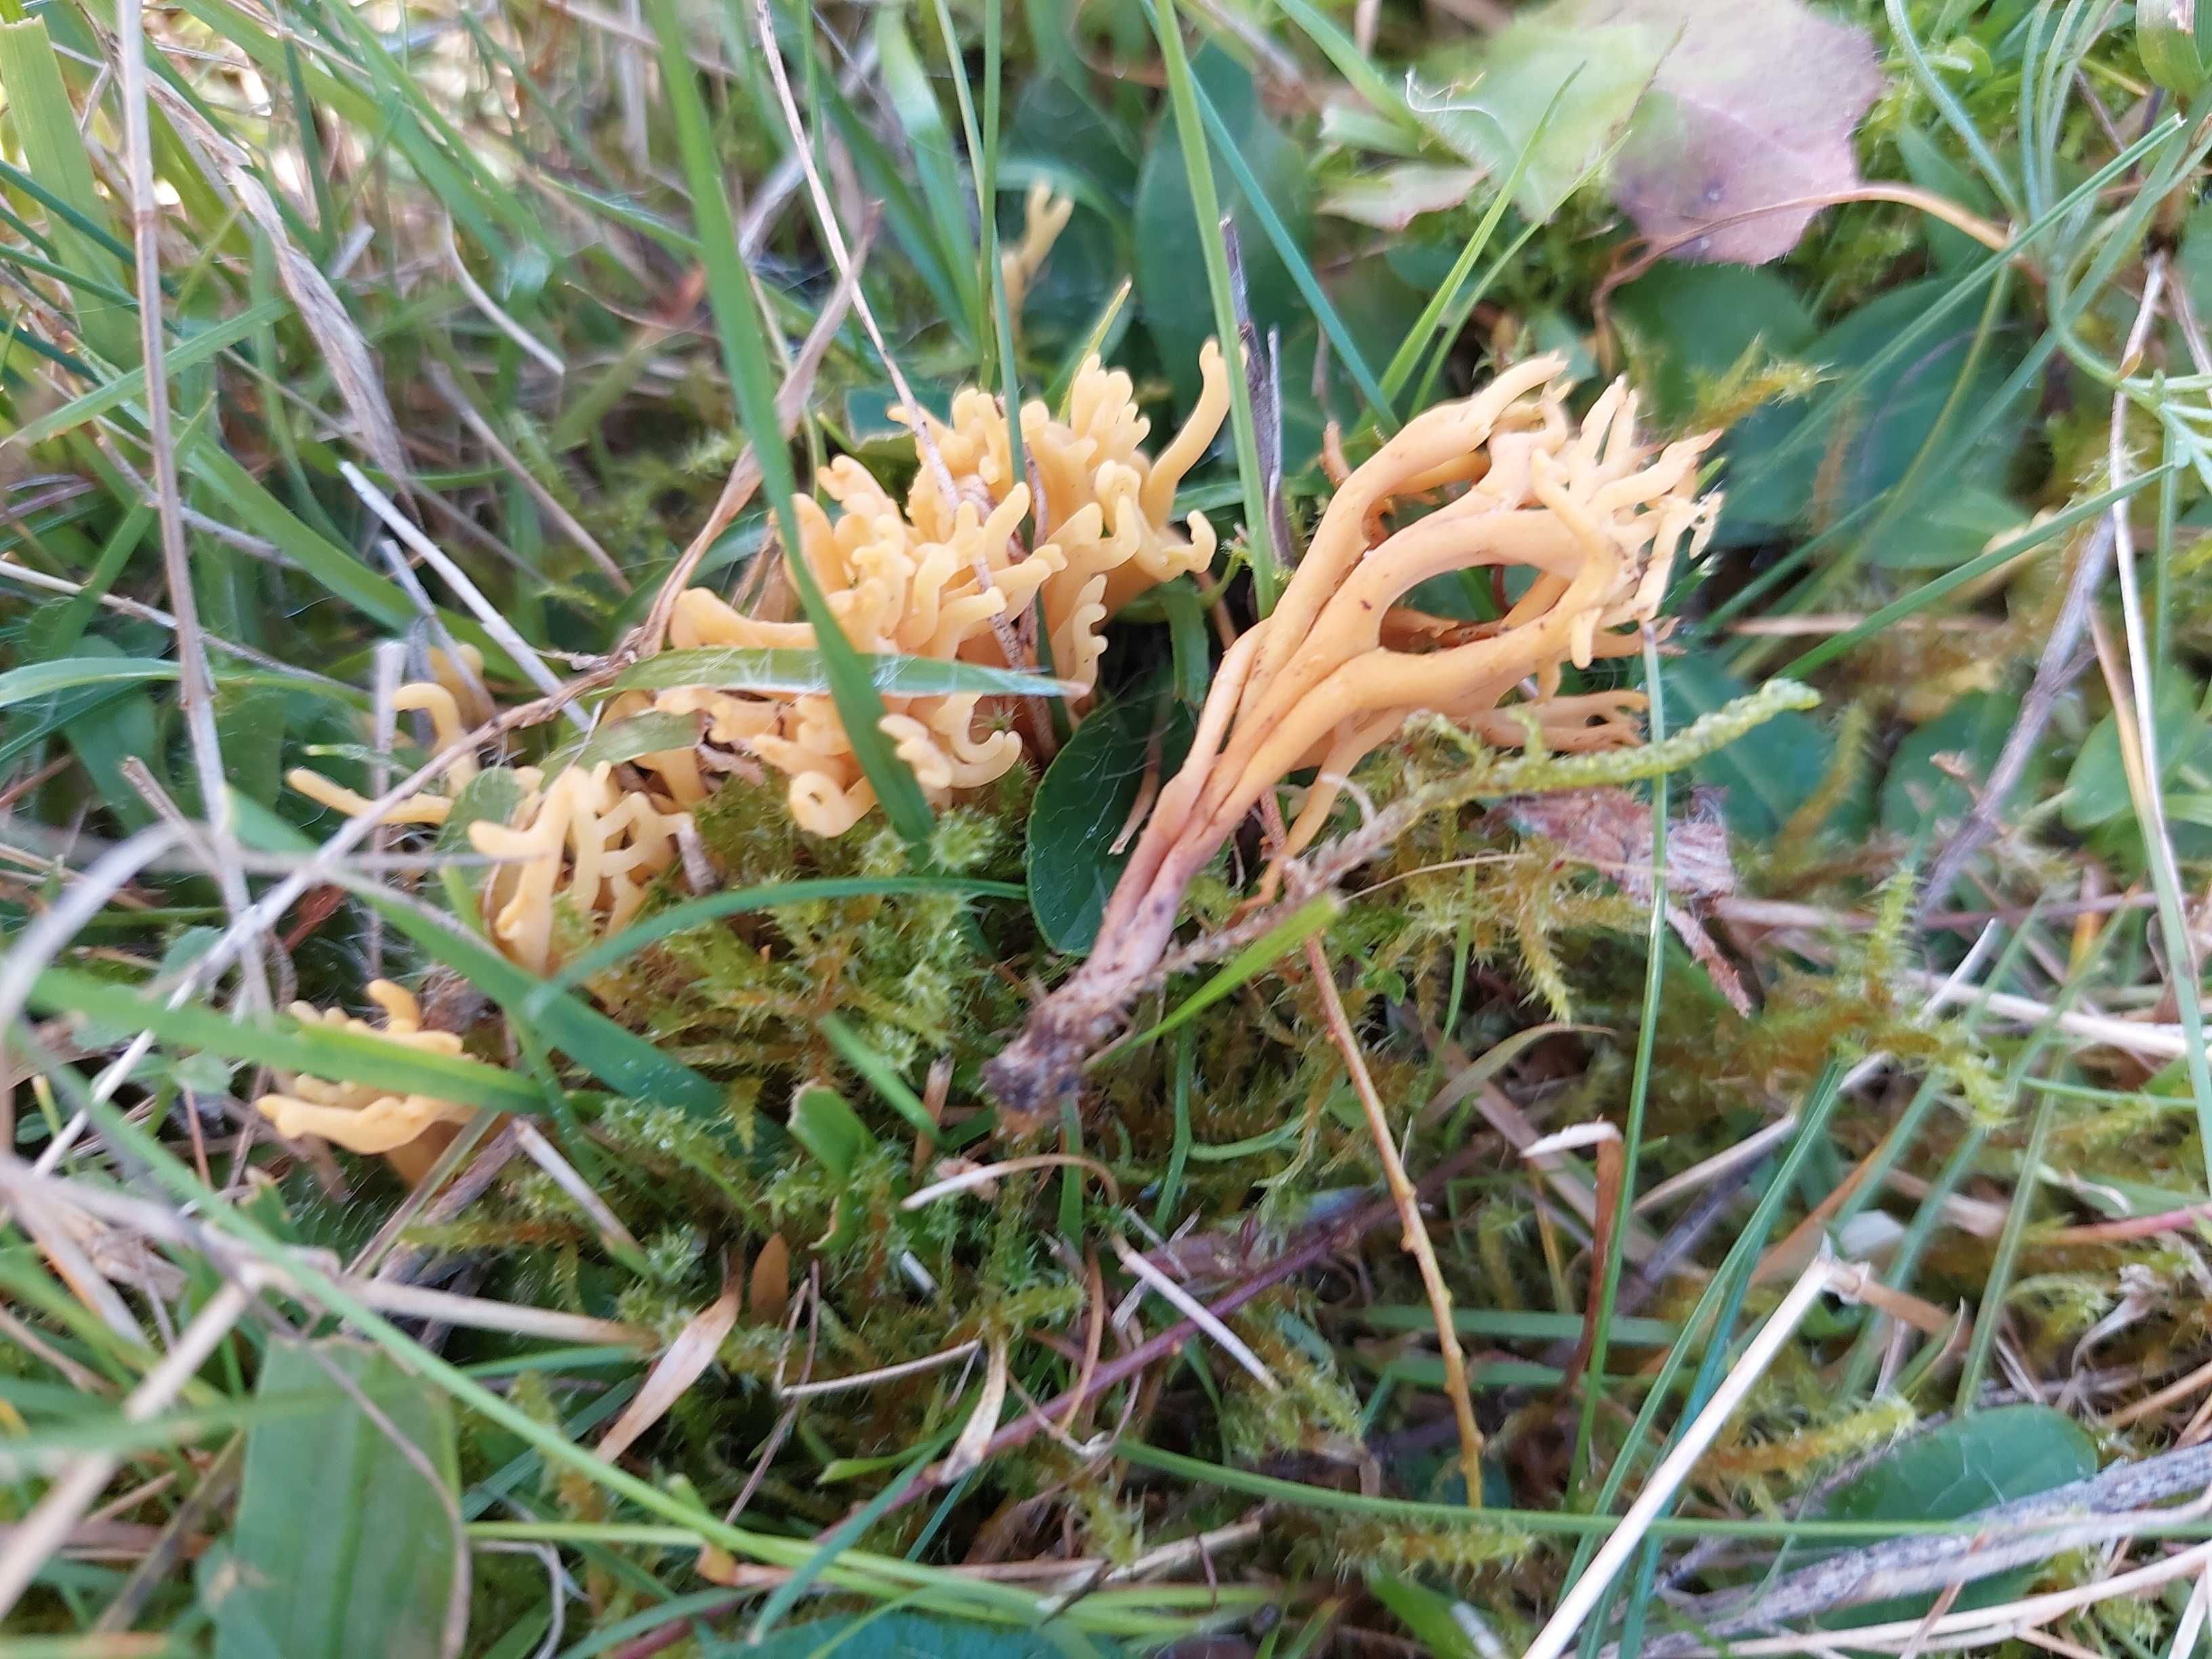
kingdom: Fungi
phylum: Basidiomycota
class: Agaricomycetes
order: Agaricales
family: Clavariaceae
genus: Clavulinopsis
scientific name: Clavulinopsis corniculata
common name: eng-køllesvamp
